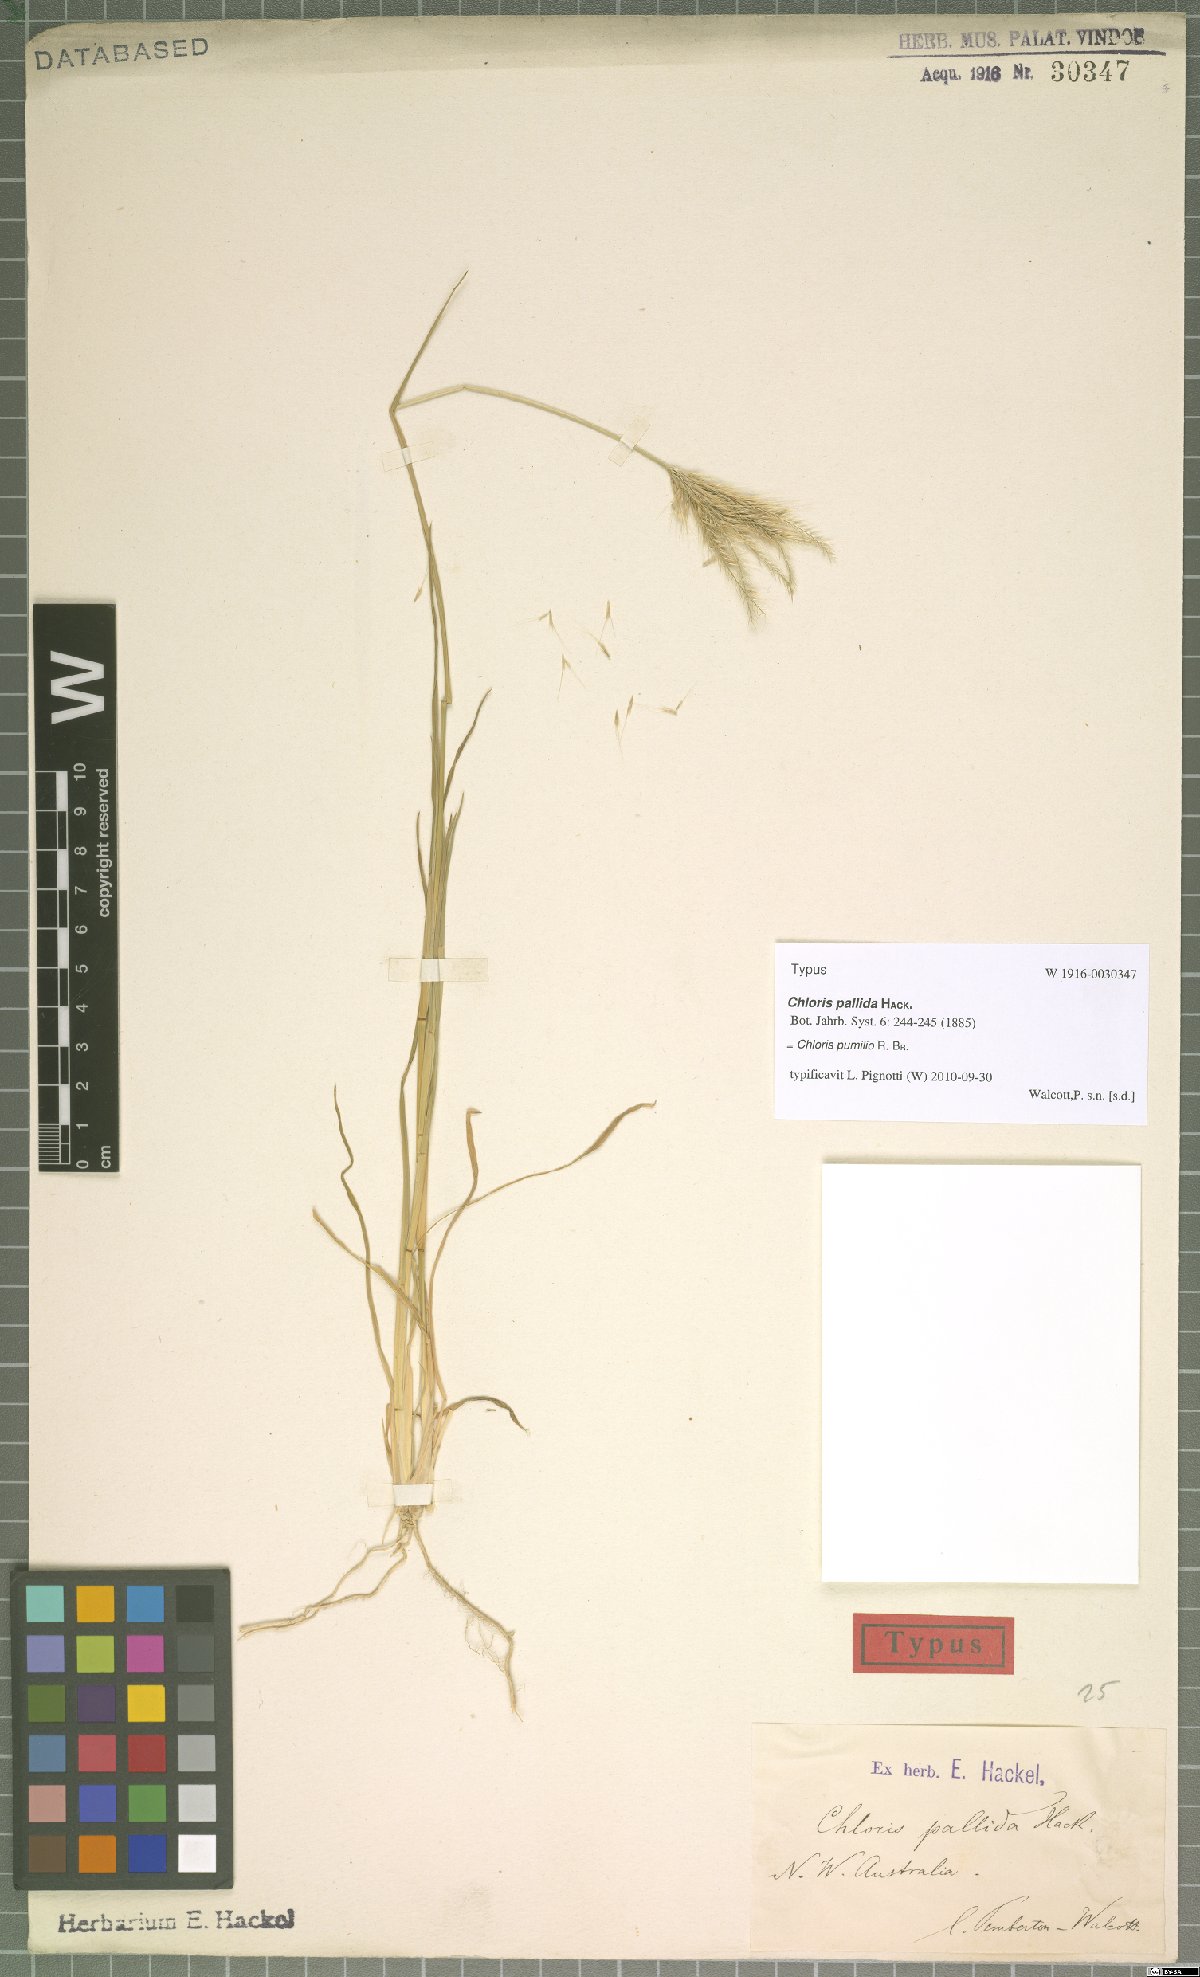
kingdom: Plantae
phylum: Tracheophyta
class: Liliopsida
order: Poales
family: Poaceae
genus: Chloris
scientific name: Chloris pumilio
